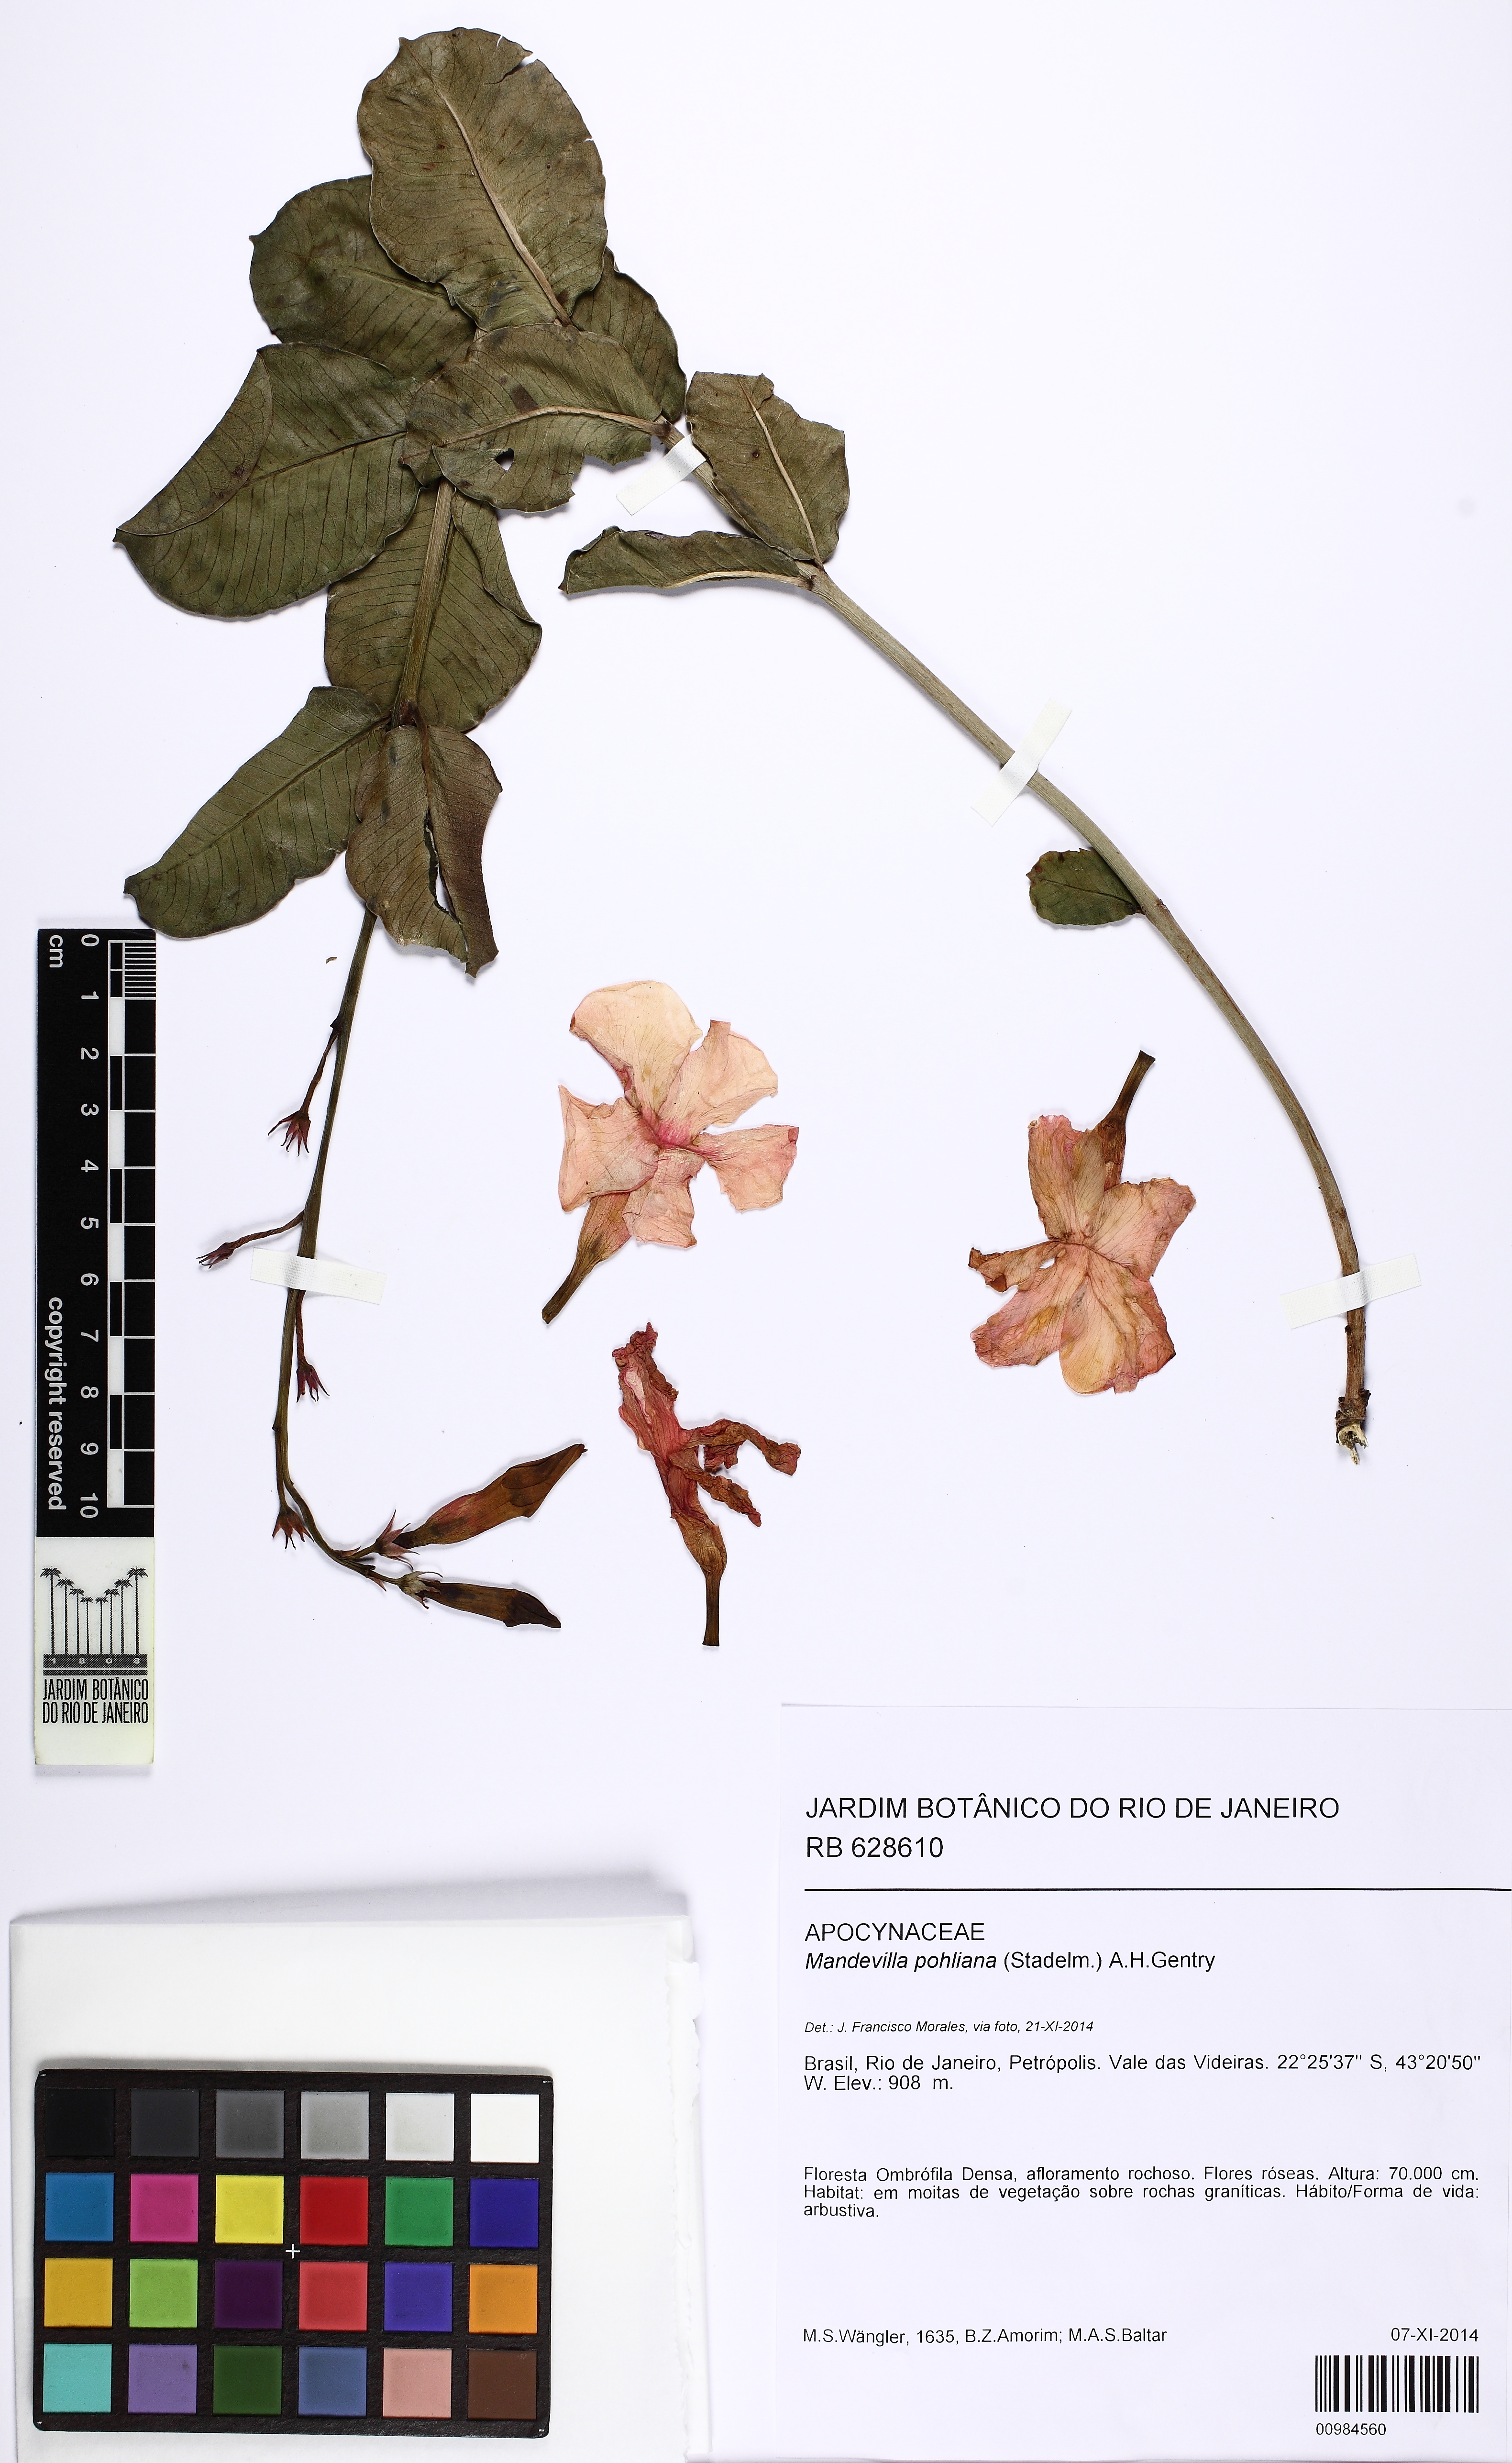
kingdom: Plantae
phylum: Tracheophyta
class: Magnoliopsida
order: Gentianales
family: Apocynaceae
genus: Mandevilla
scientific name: Mandevilla pohliana
